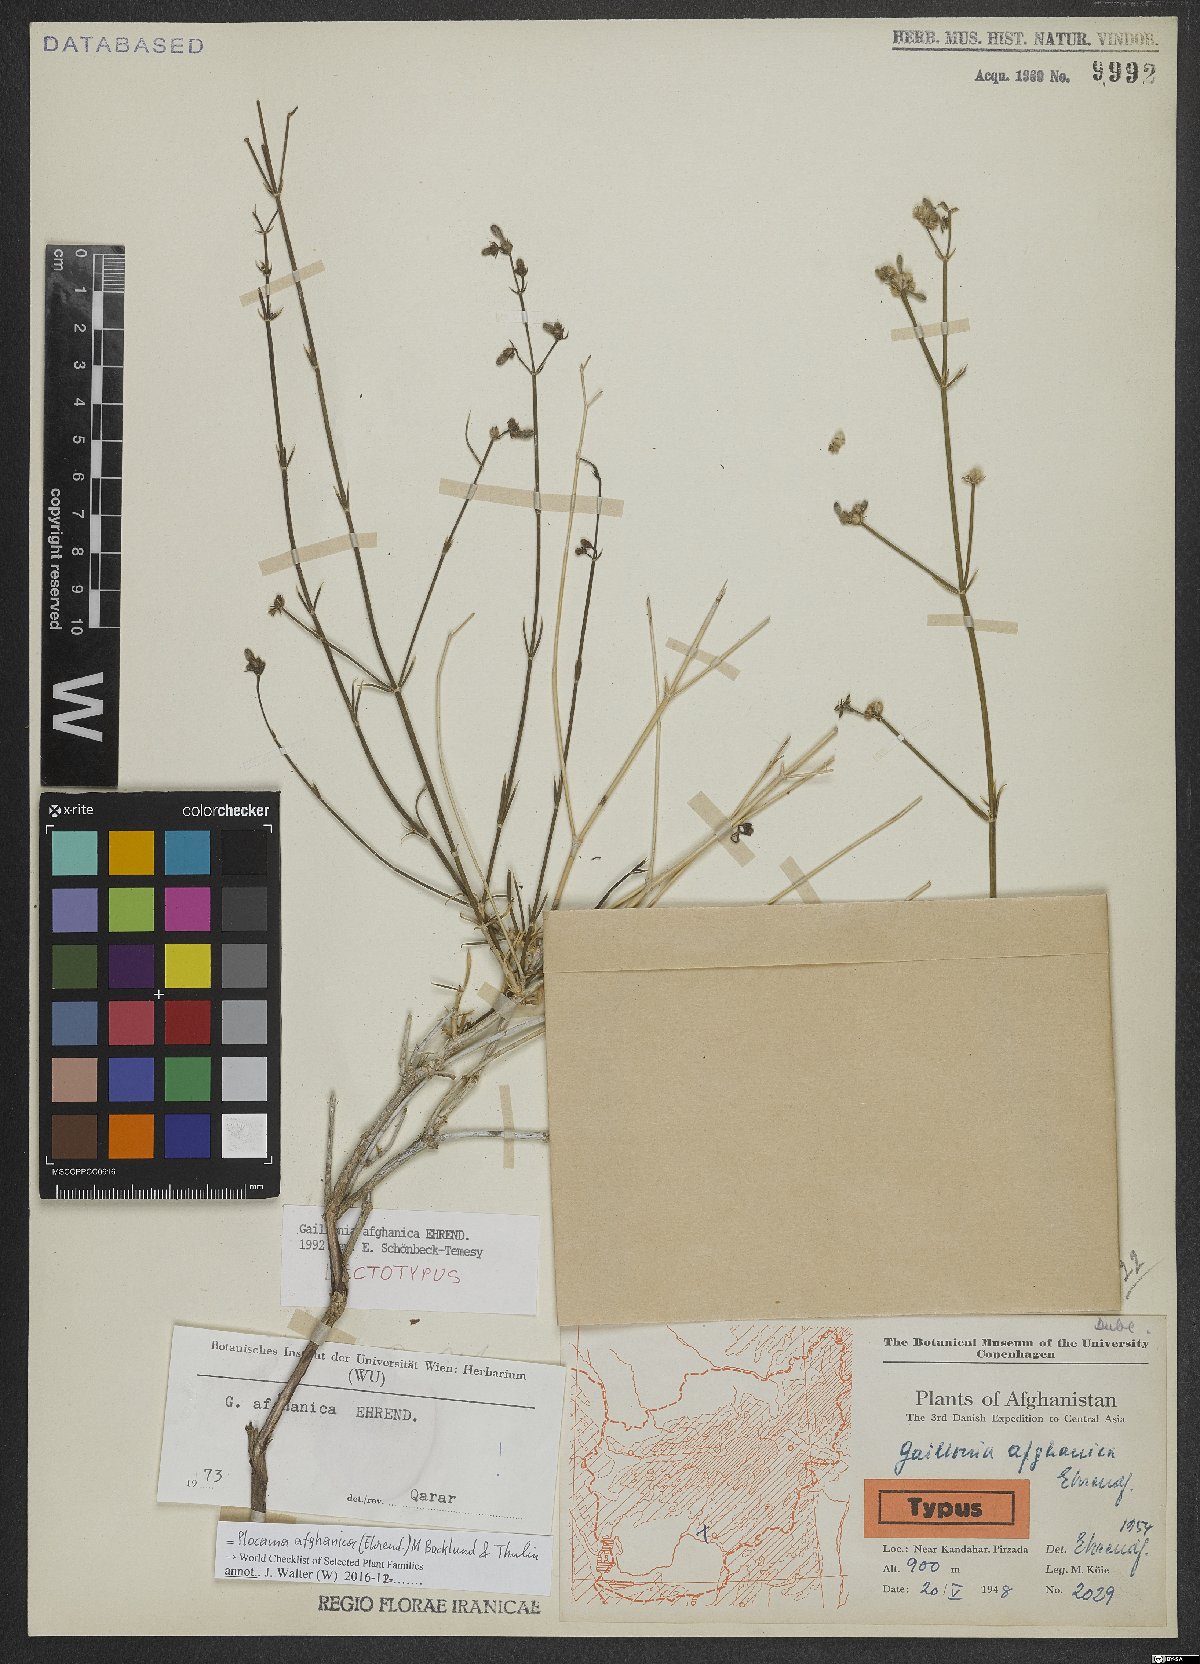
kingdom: Plantae
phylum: Tracheophyta
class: Magnoliopsida
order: Gentianales
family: Rubiaceae
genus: Plocama
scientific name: Plocama afghanica
